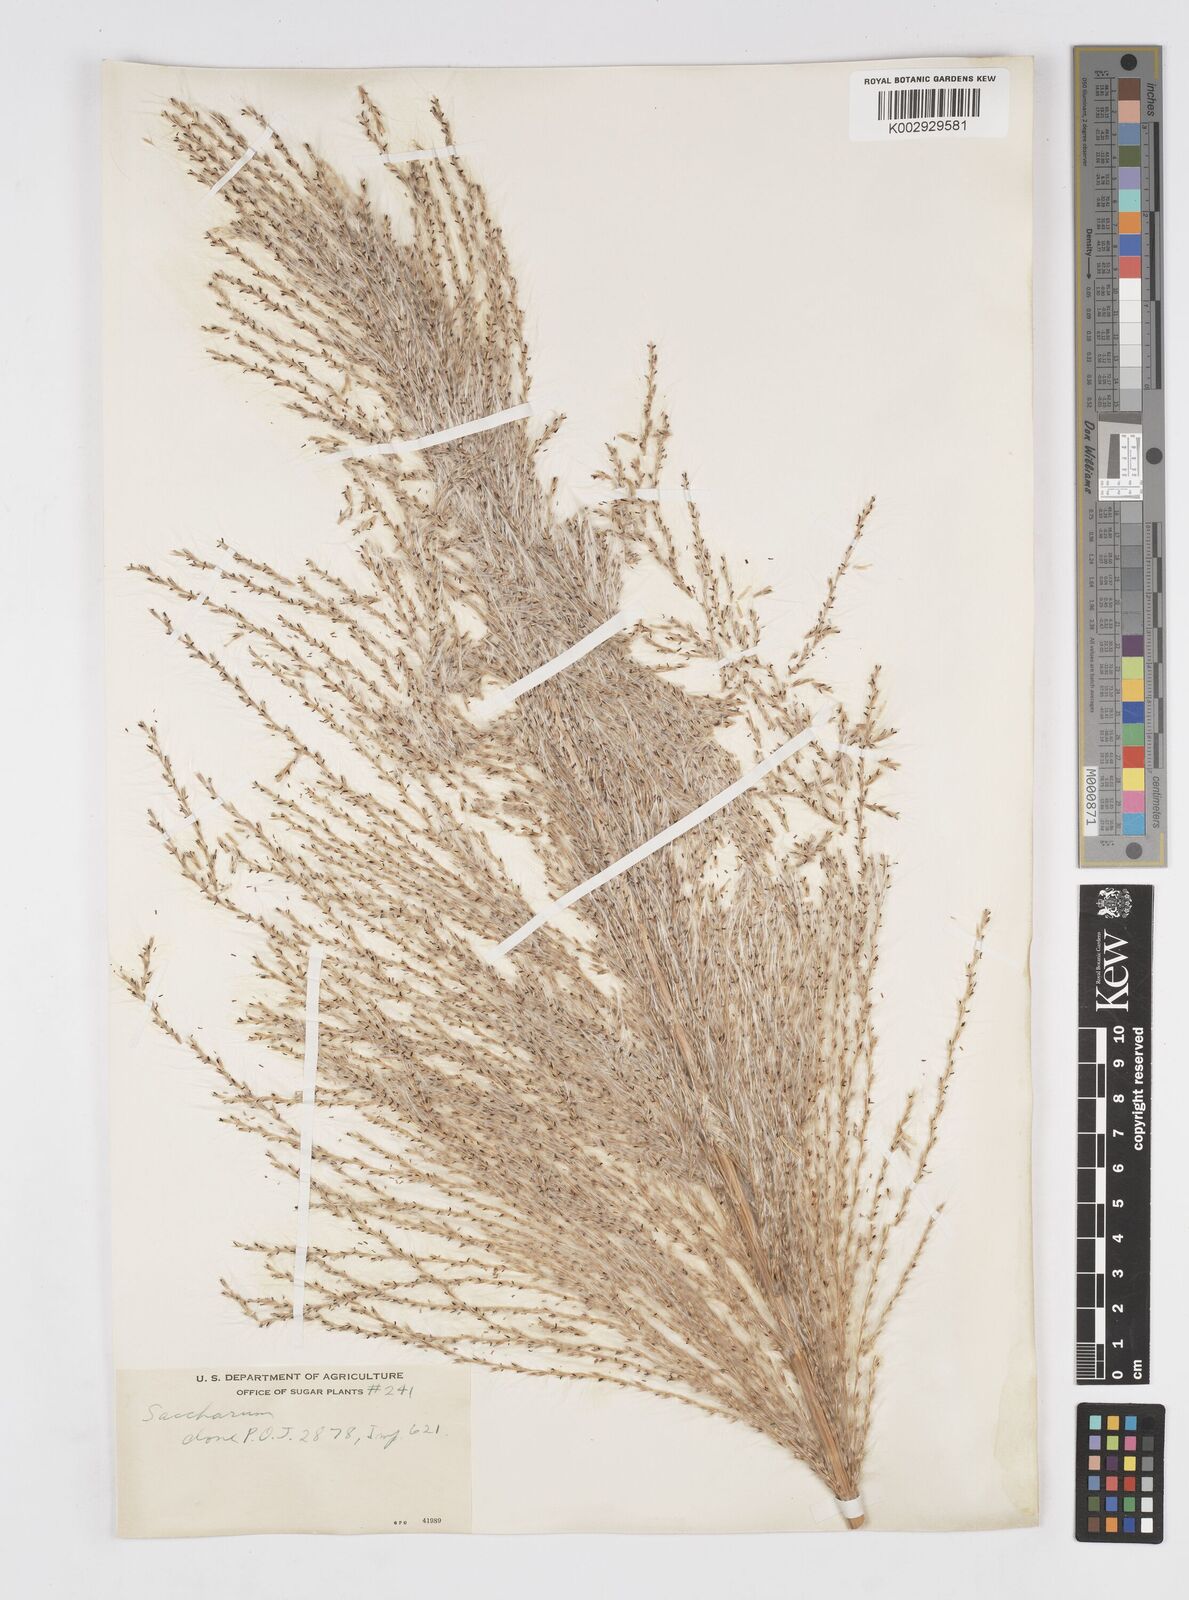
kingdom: Plantae
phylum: Tracheophyta
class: Liliopsida
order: Poales
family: Poaceae
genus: Saccharum
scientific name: Saccharum officinarum
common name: Sugarcane
